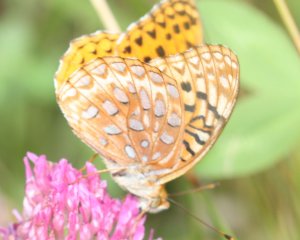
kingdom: Animalia
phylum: Arthropoda
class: Insecta
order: Lepidoptera
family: Nymphalidae
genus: Speyeria
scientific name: Speyeria aphrodite
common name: Aphrodite Fritillary
